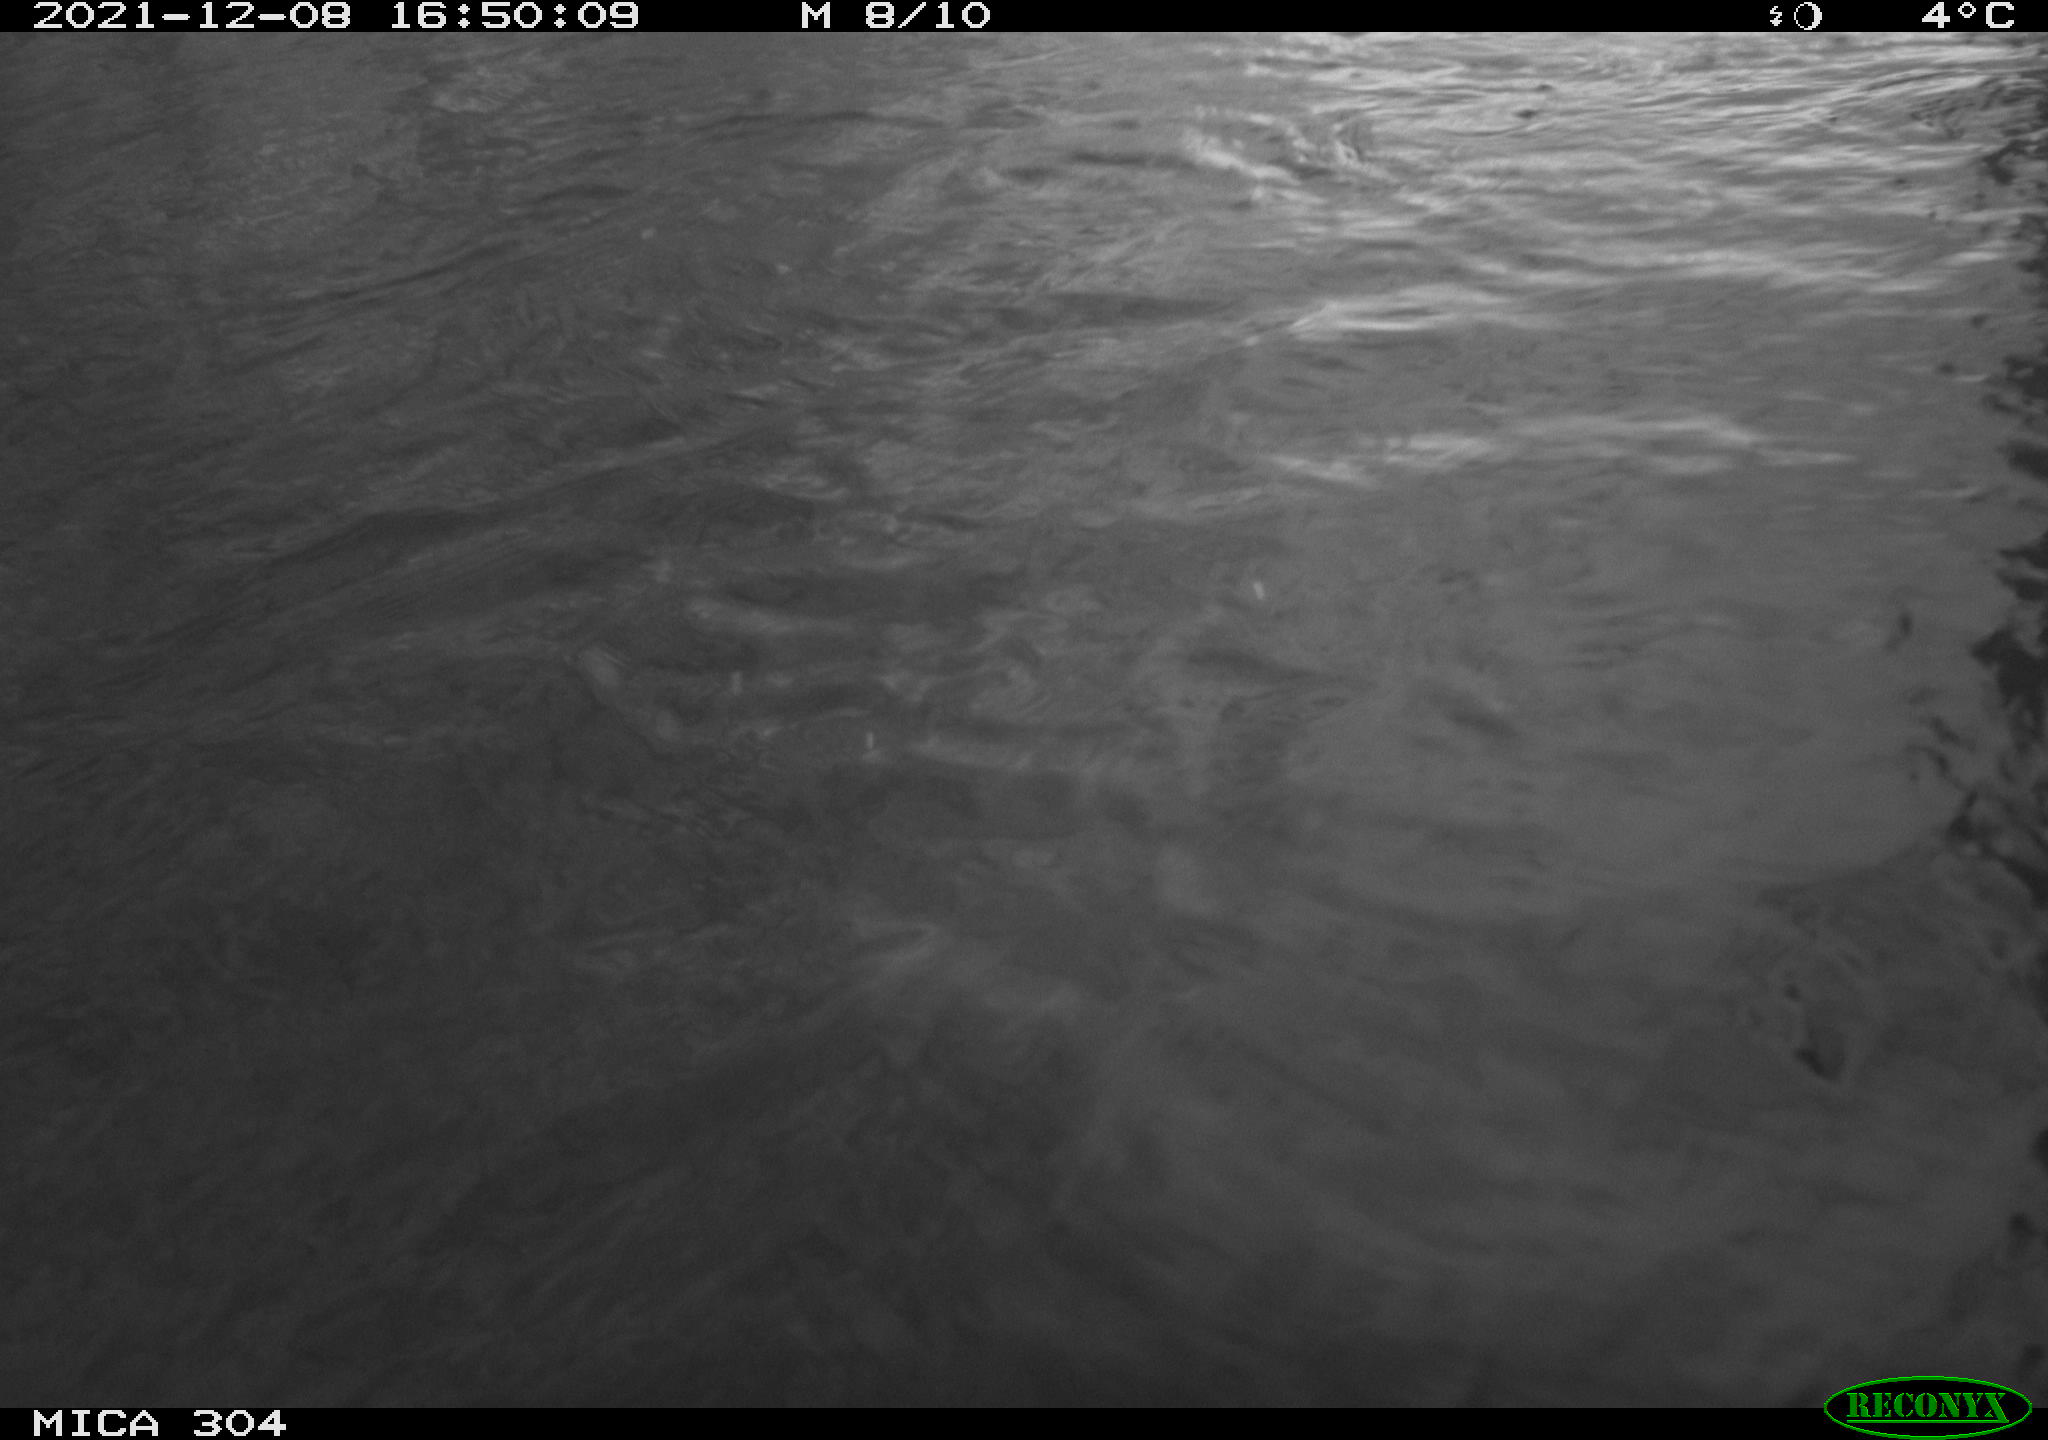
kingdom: Animalia
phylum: Chordata
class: Aves
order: Gruiformes
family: Rallidae
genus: Fulica
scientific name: Fulica atra
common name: Eurasian coot
